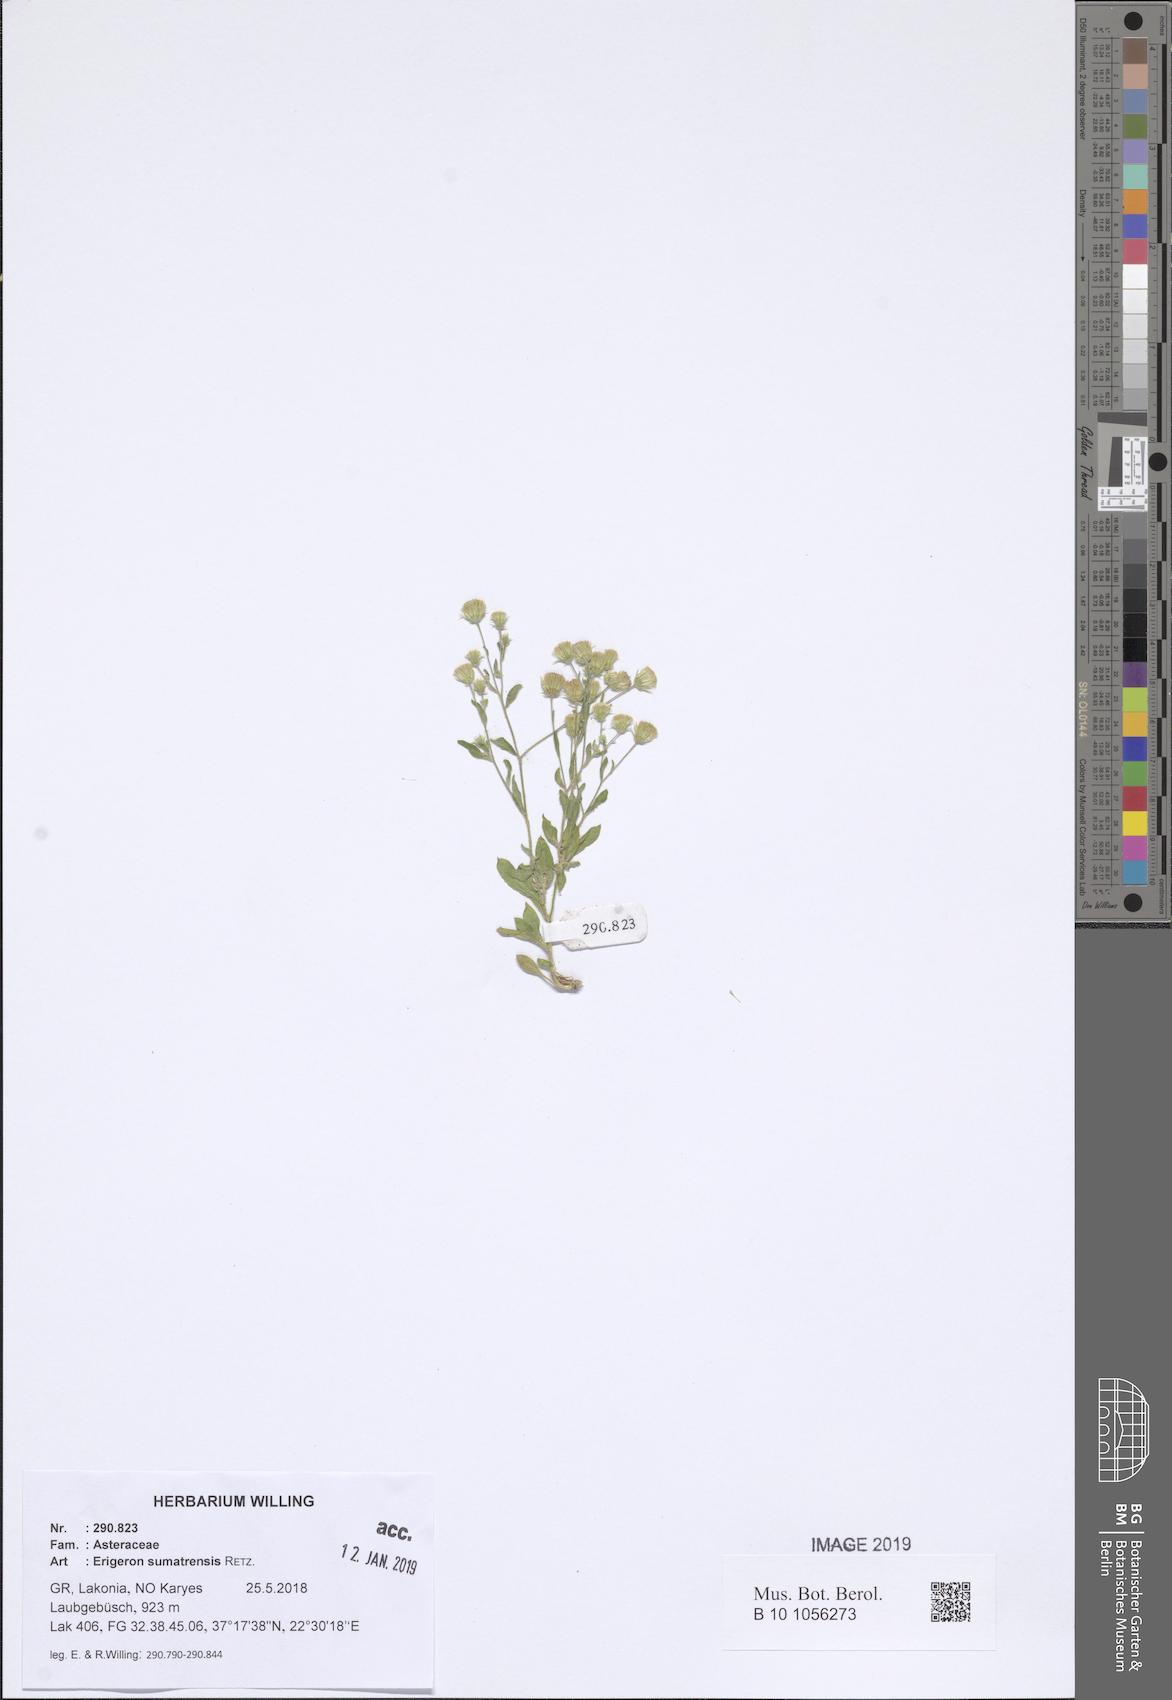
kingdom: Plantae
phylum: Tracheophyta
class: Magnoliopsida
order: Asterales
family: Asteraceae
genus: Erigeron
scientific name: Erigeron sumatrensis
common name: Daisy
